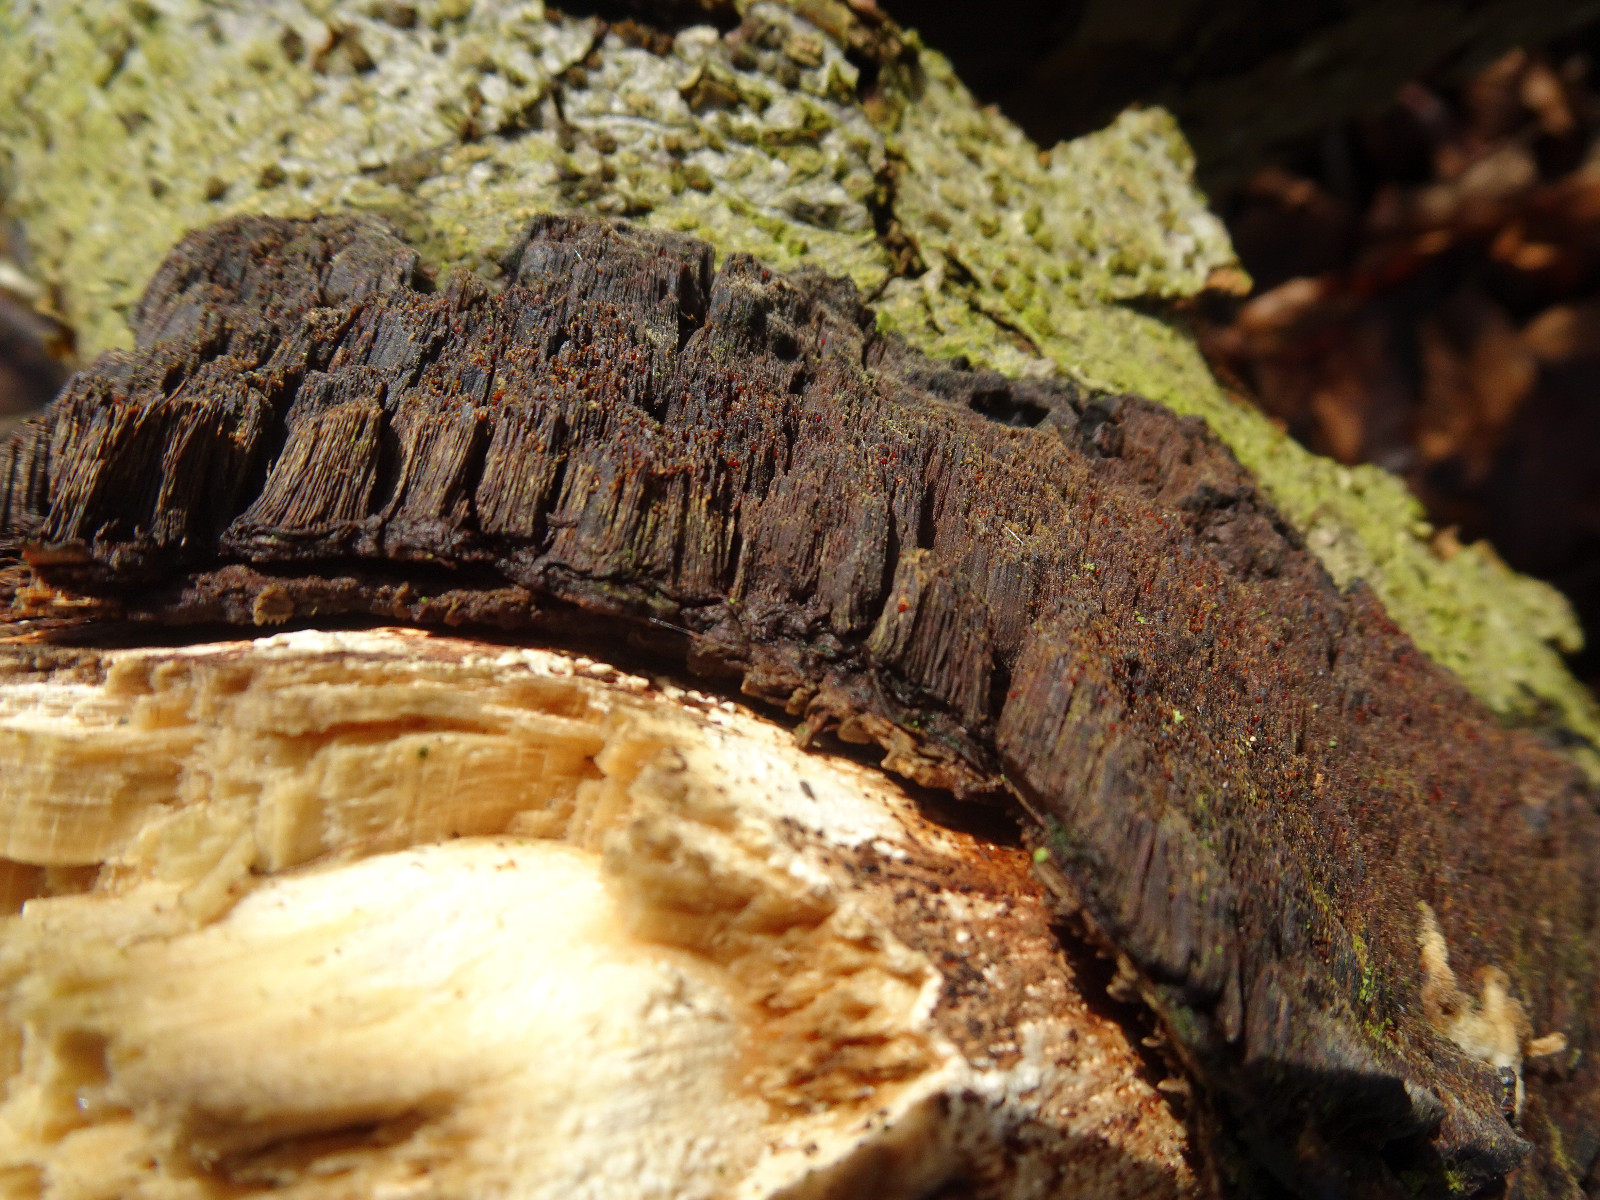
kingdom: Fungi
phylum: Ascomycota
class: Sordariomycetes
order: Hypocreales
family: Nectriaceae
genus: Cosmospora
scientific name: Cosmospora coccinea
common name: spejlpore-cinnobersvamp
